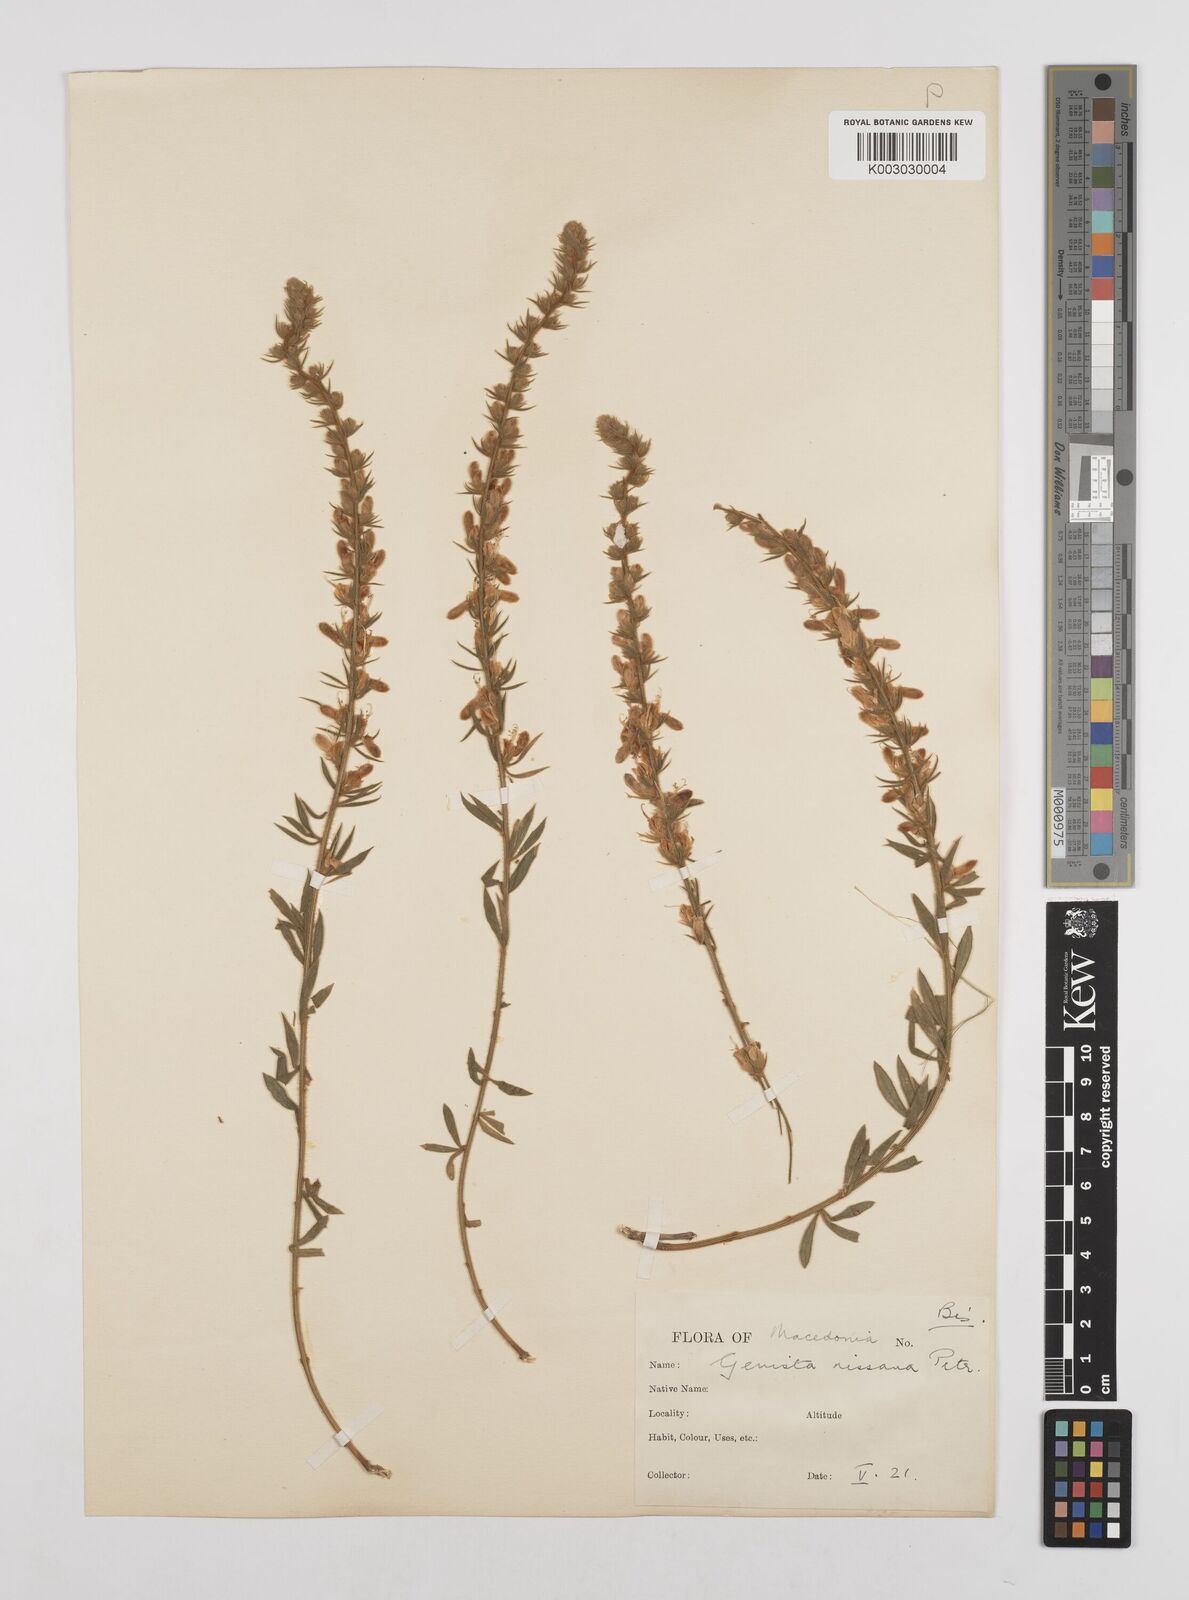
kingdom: Plantae
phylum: Tracheophyta
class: Magnoliopsida
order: Fabales
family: Fabaceae
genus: Genista
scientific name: Genista nissana
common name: Macedonian broom
